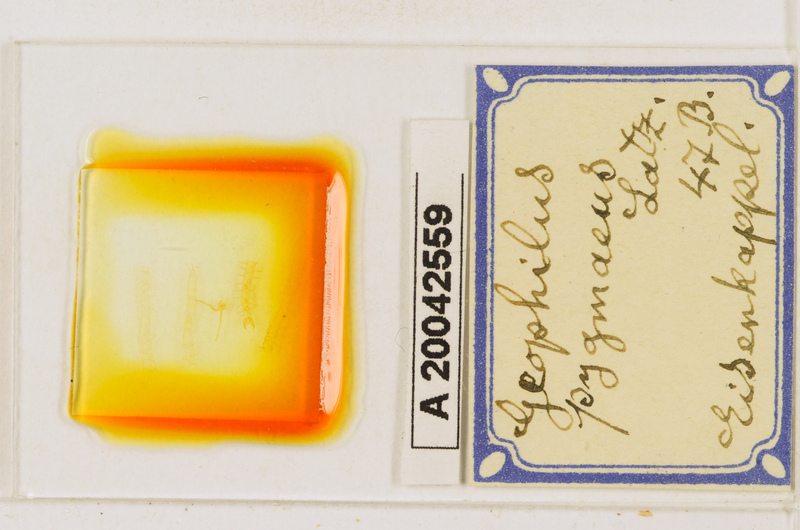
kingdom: Animalia
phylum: Arthropoda
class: Chilopoda
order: Geophilomorpha
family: Geophilidae
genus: Geophilus
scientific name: Geophilus pygmaeus
